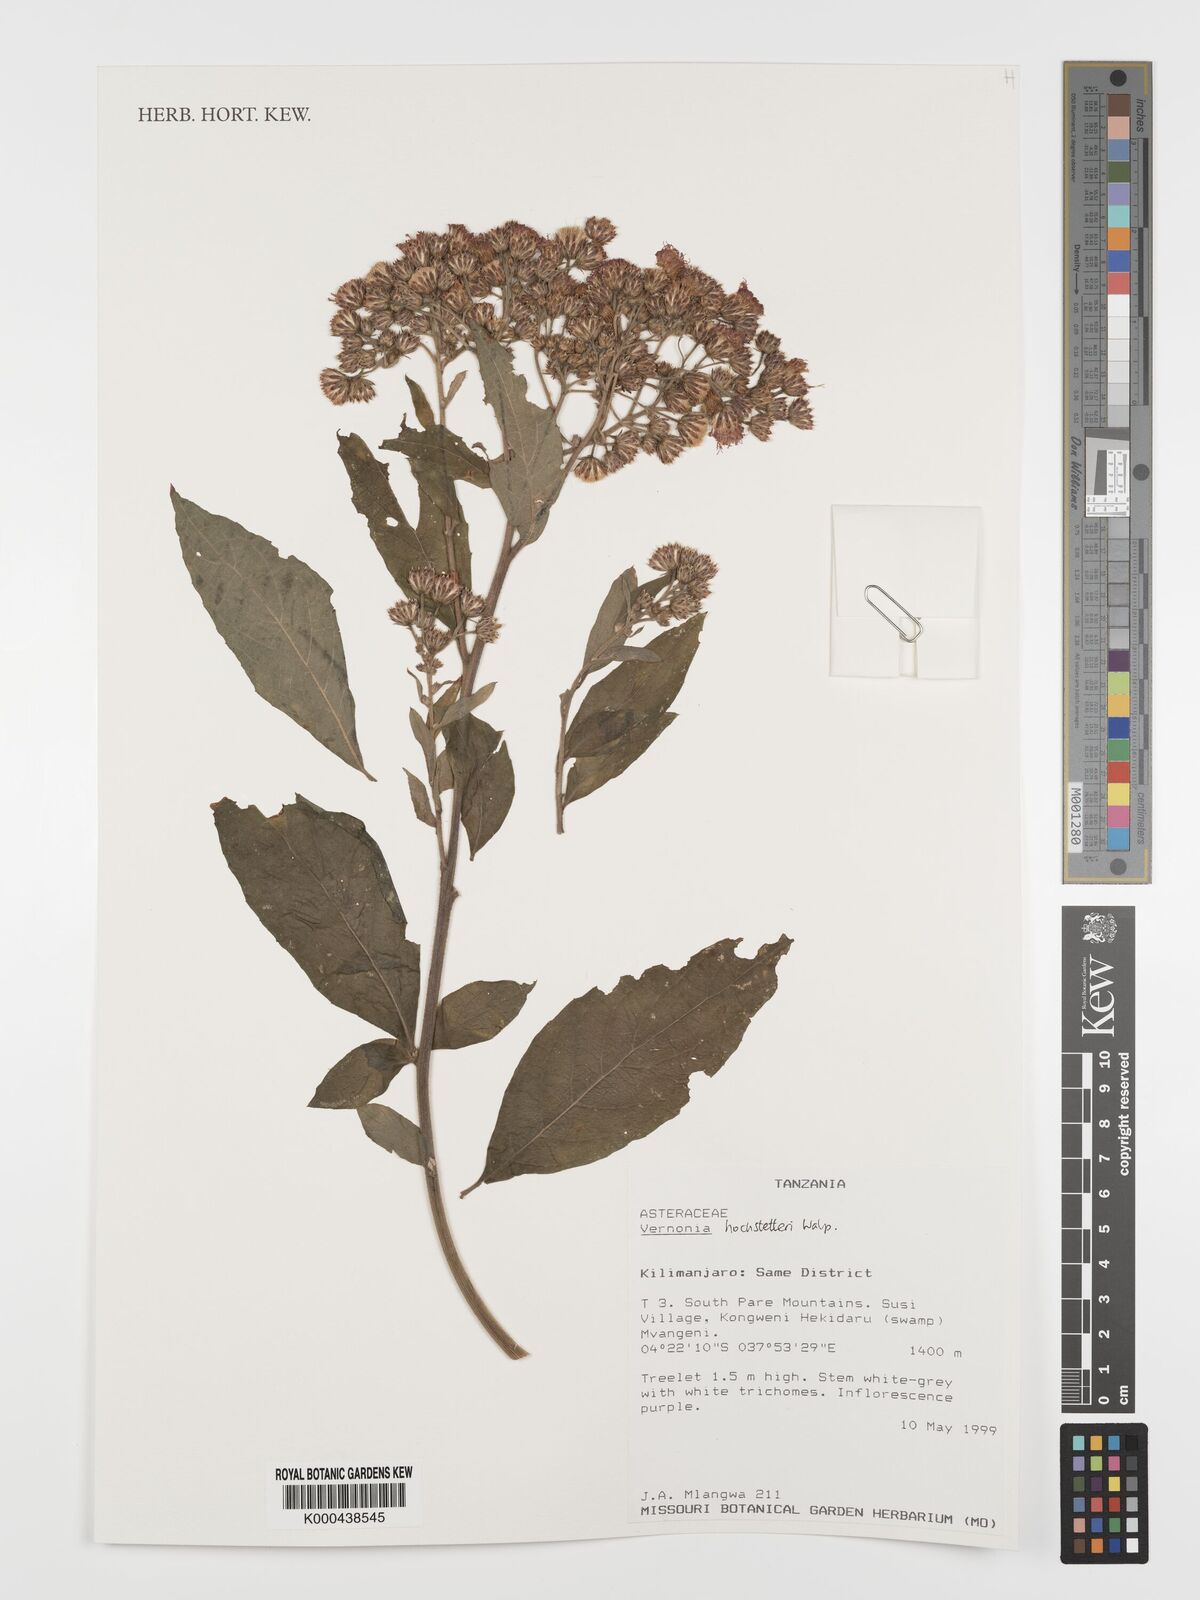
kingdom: Plantae
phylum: Tracheophyta
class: Magnoliopsida
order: Asterales
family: Asteraceae
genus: Vernonia
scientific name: Vernonia
